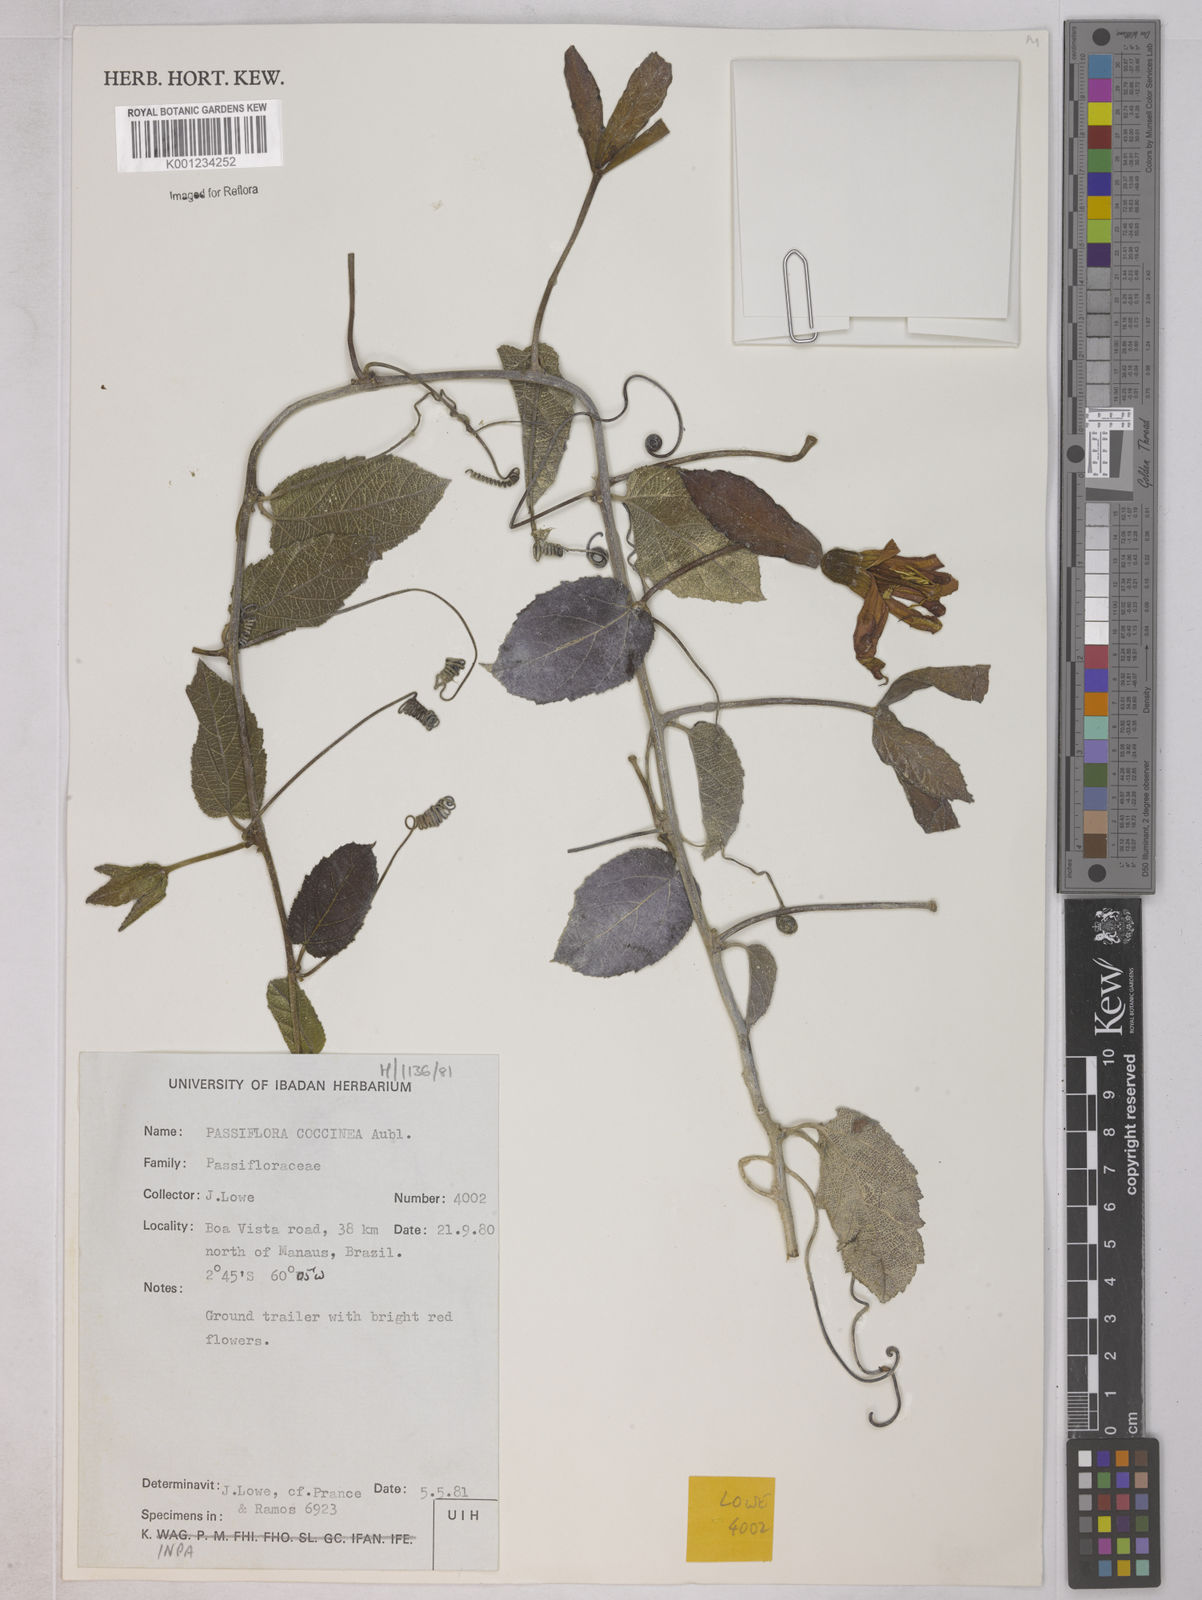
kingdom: Plantae
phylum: Tracheophyta
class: Magnoliopsida
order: Malpighiales
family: Passifloraceae
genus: Passiflora
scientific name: Passiflora coccinea
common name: Scarlet passionflower
